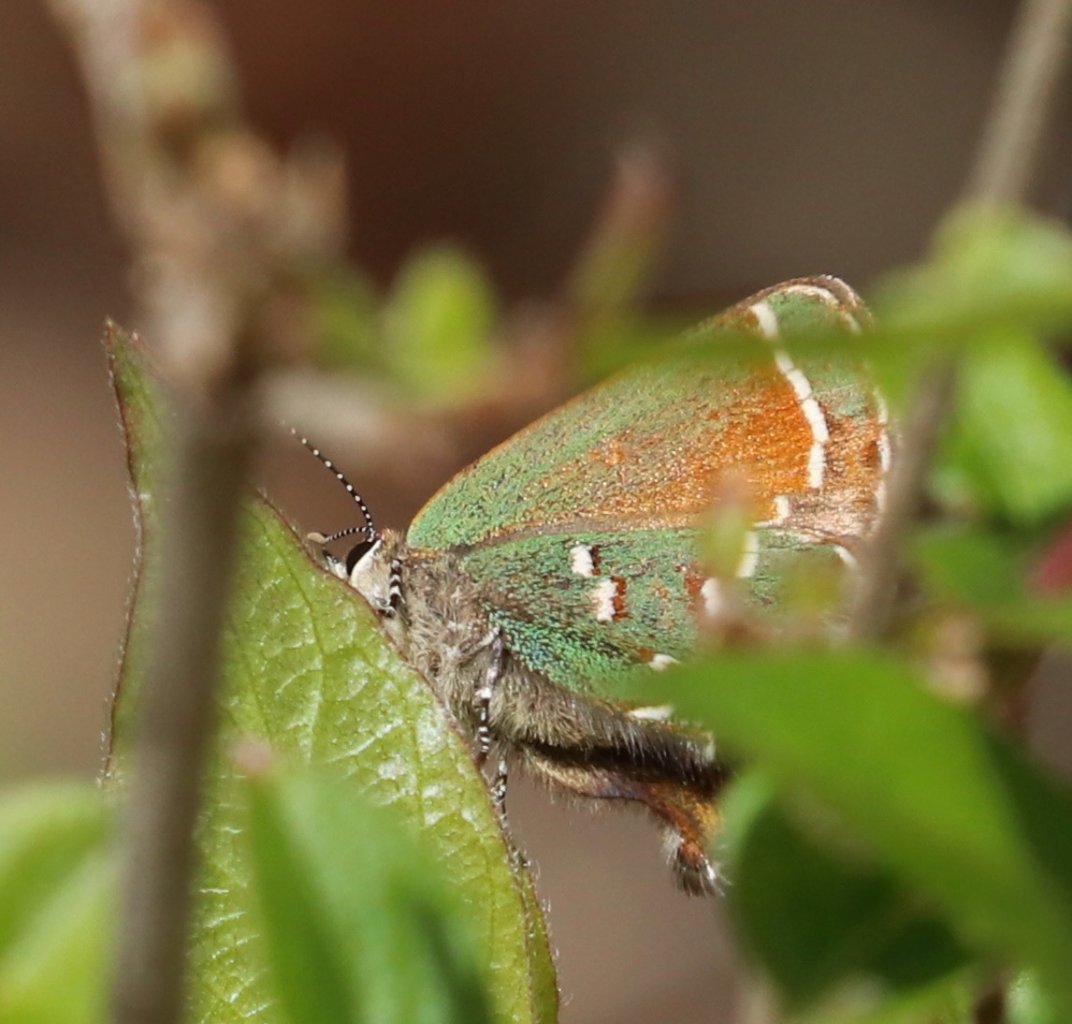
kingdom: Animalia
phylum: Arthropoda
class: Insecta
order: Lepidoptera
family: Lycaenidae
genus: Mitoura
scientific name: Mitoura gryneus
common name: Juniper Hairstreak
